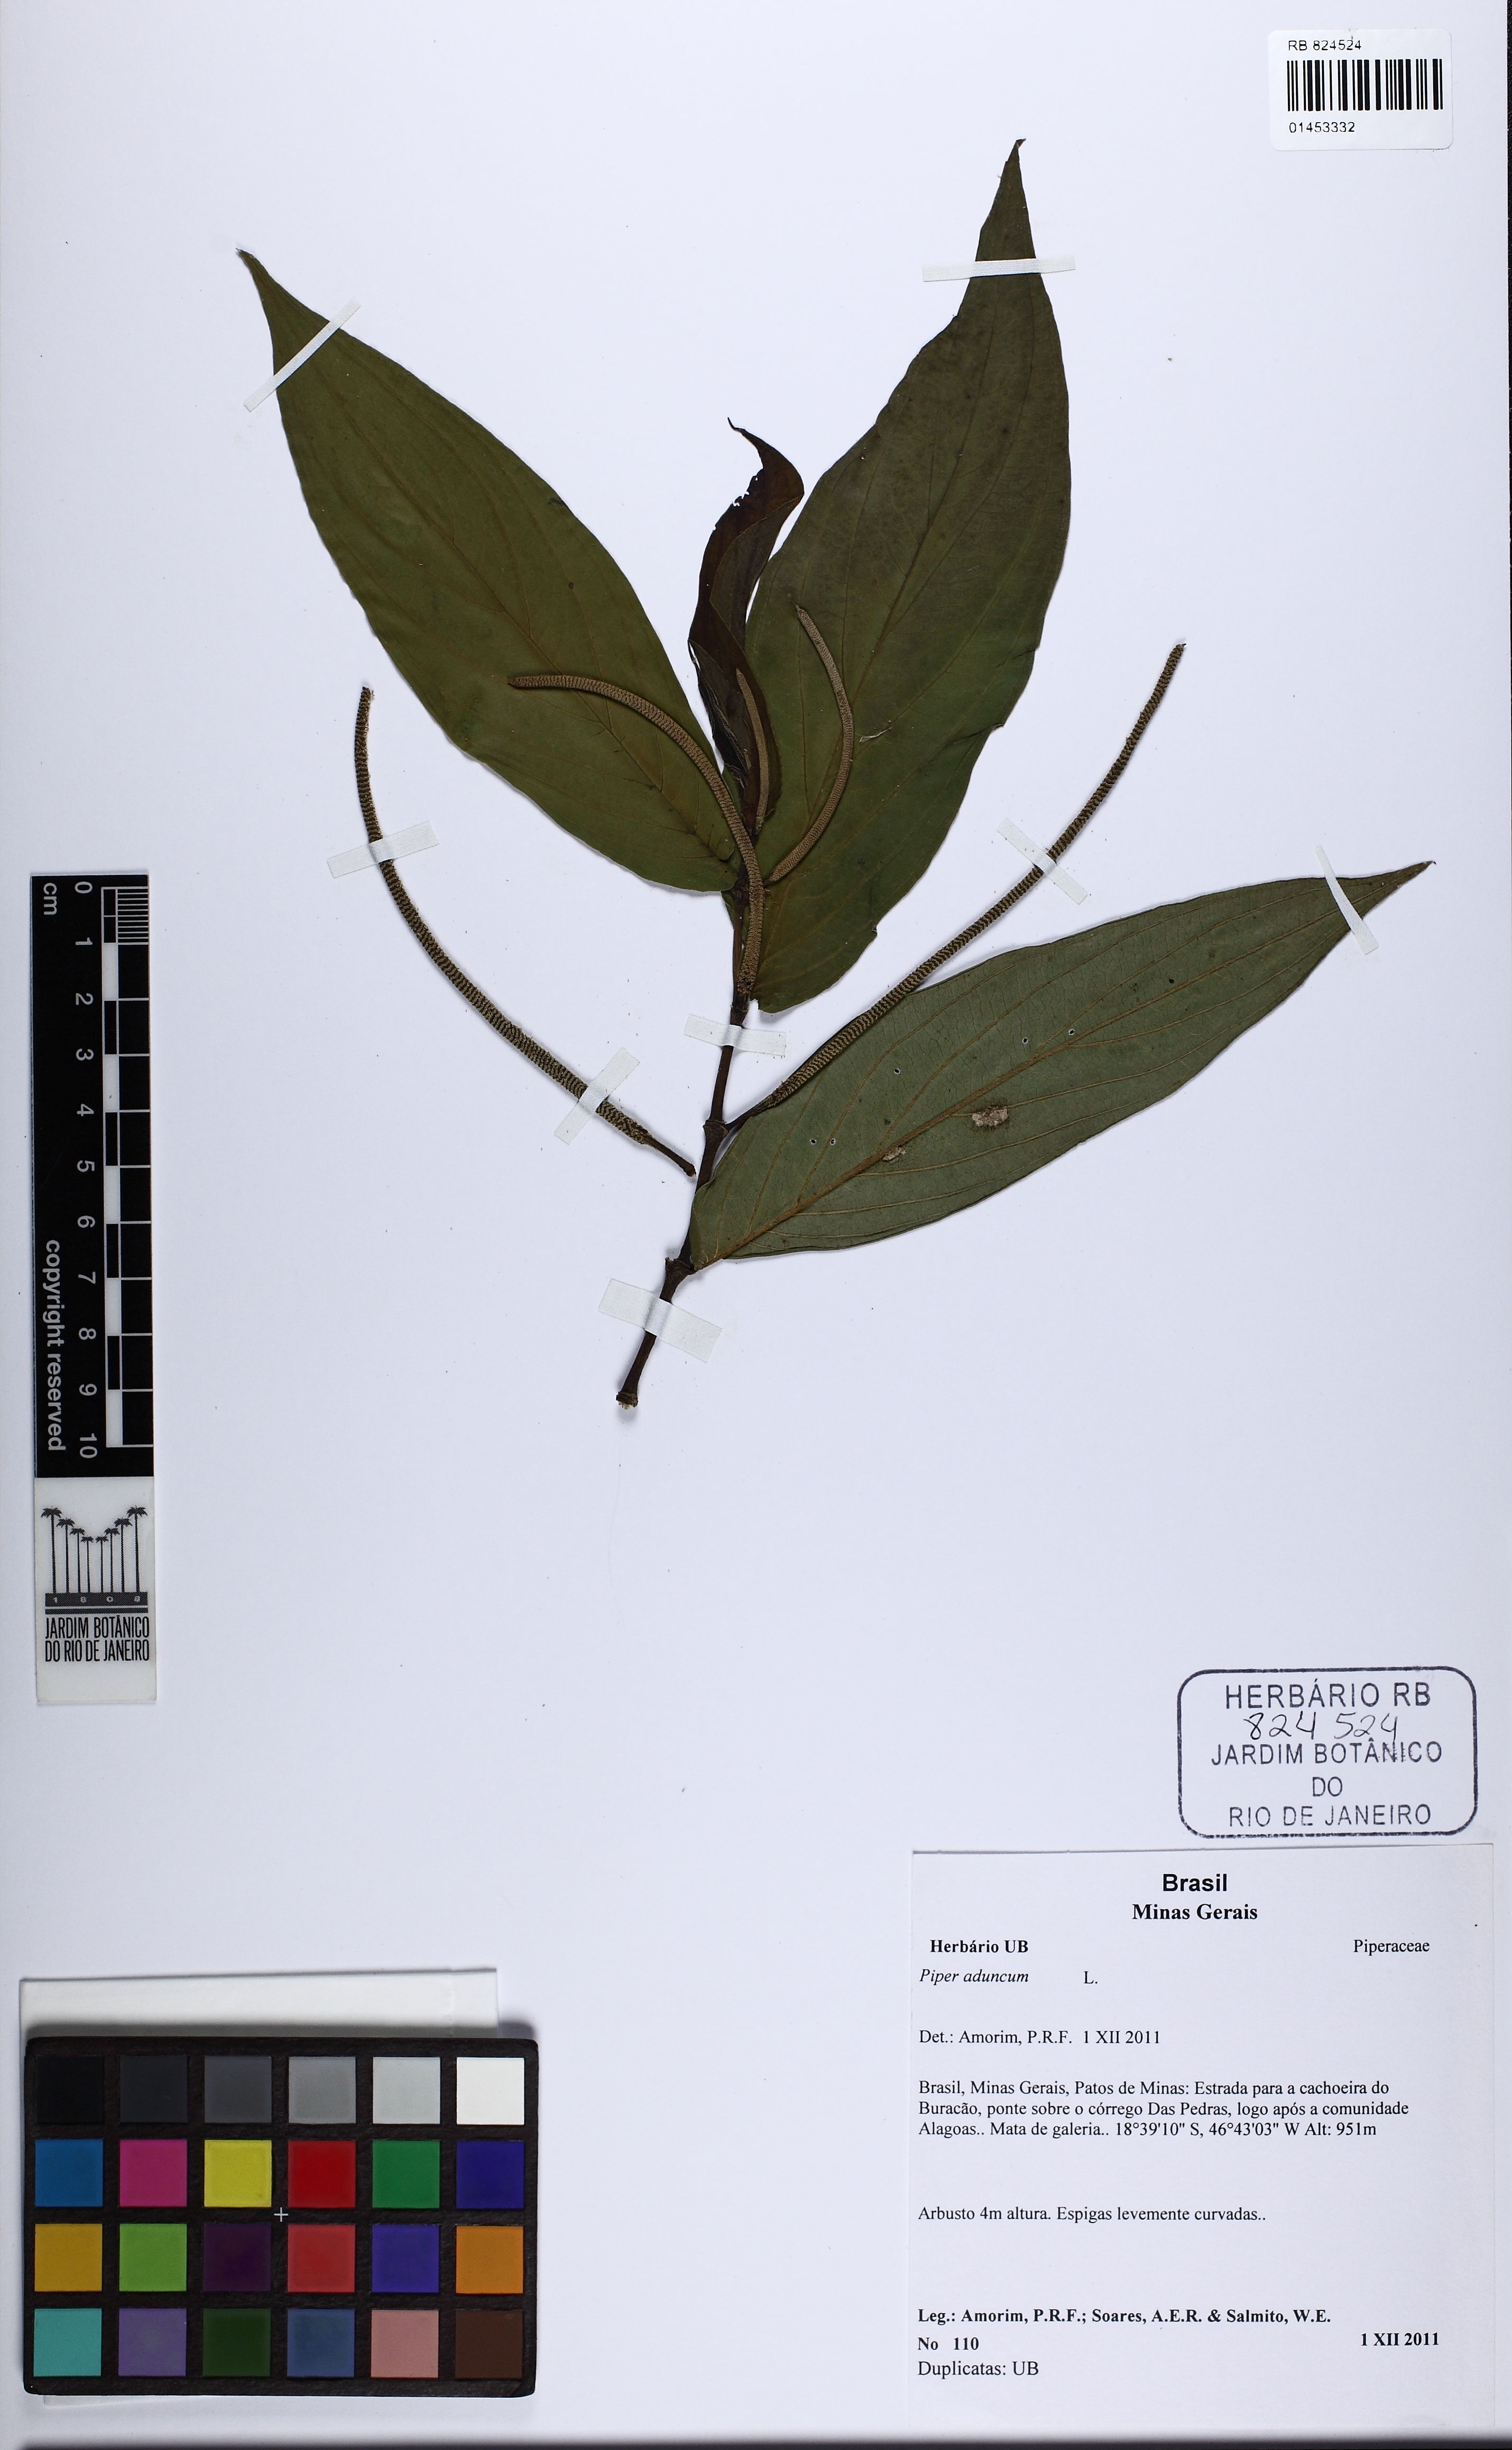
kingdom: Plantae
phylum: Tracheophyta
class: Magnoliopsida
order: Piperales
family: Piperaceae
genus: Piper
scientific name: Piper aduncum
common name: Spiked pepper
